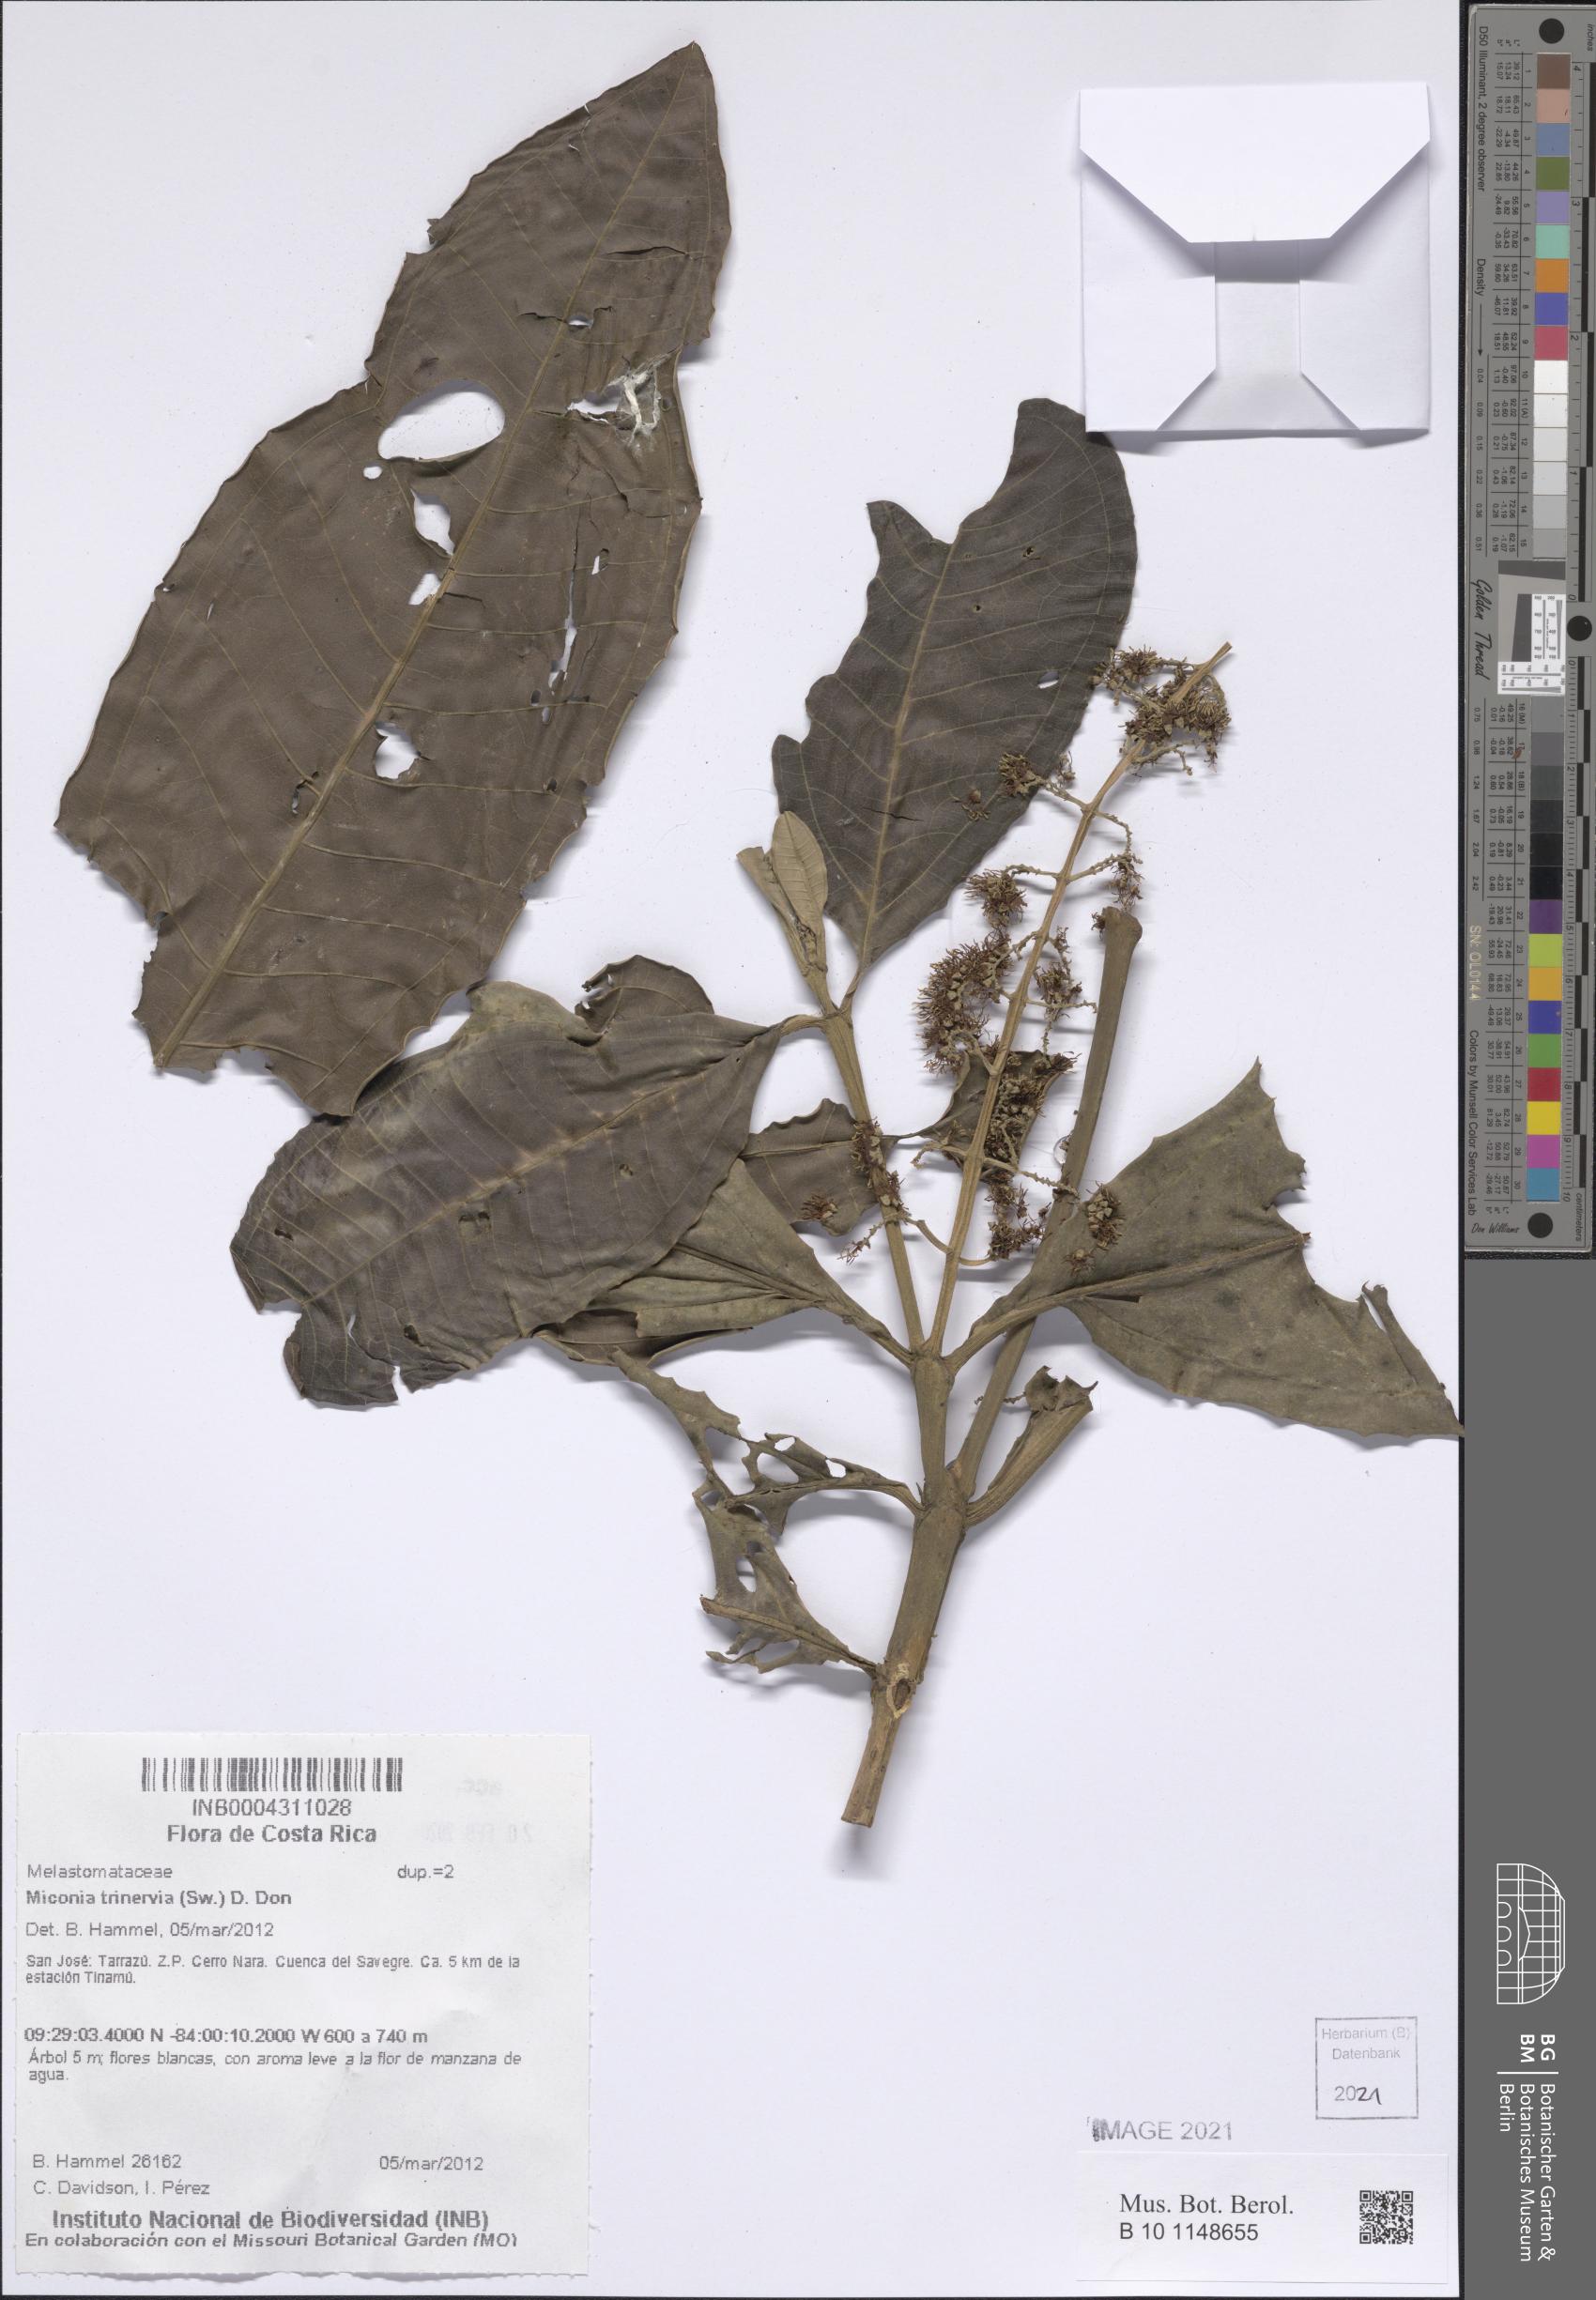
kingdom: Plantae
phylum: Tracheophyta
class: Magnoliopsida
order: Myrtales
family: Melastomataceae
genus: Miconia
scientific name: Miconia trinervia
